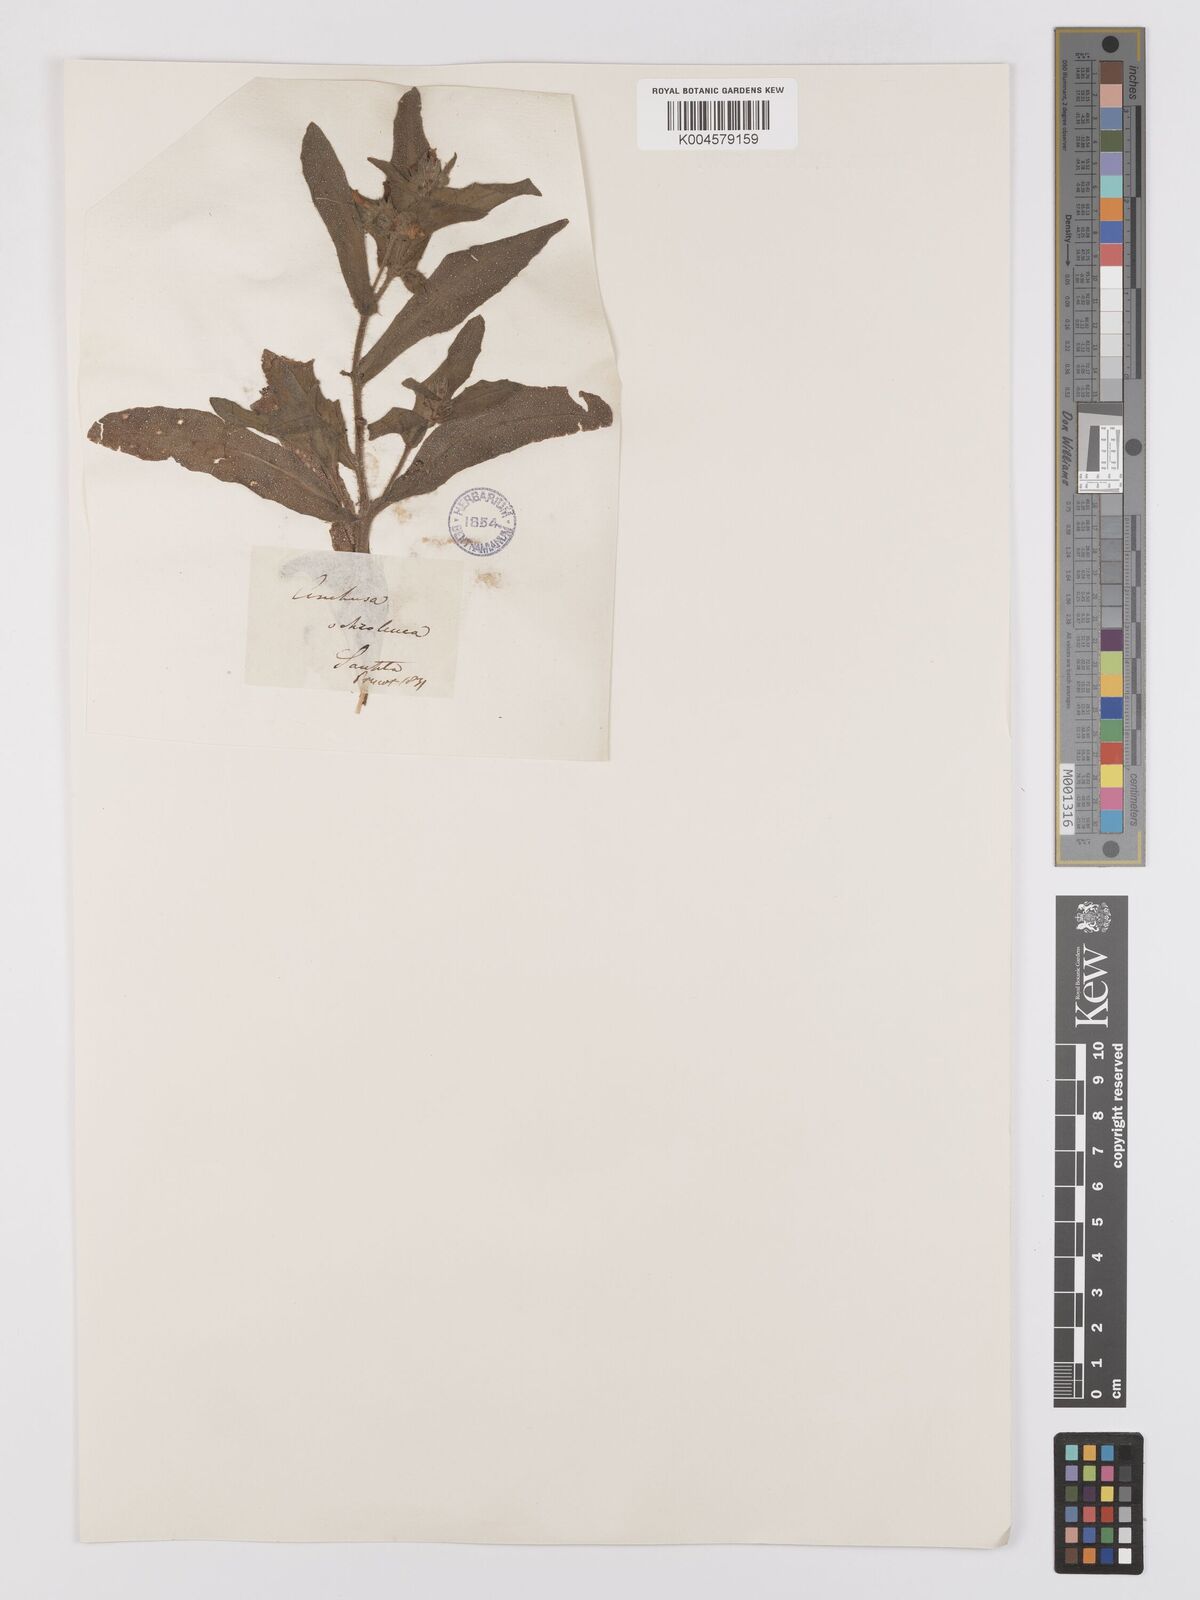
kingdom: Plantae
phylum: Tracheophyta
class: Magnoliopsida
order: Boraginales
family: Boraginaceae
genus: Nonea
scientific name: Nonea
